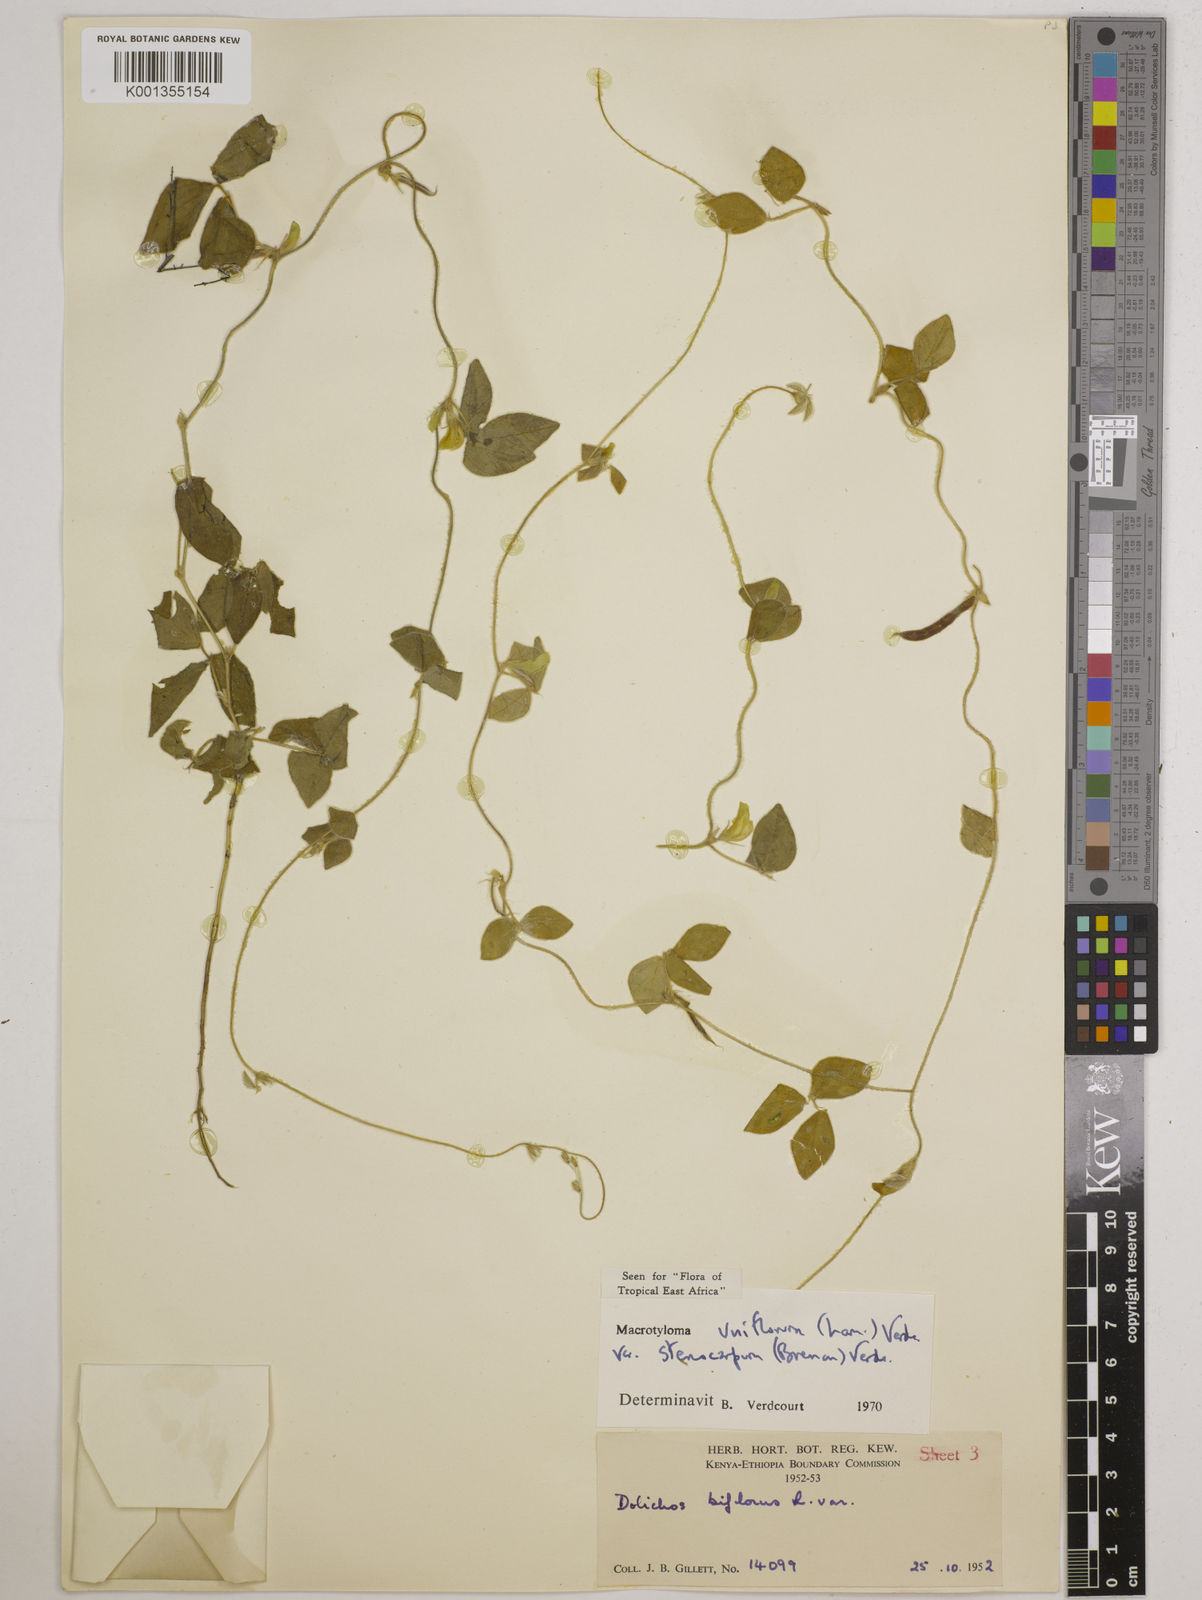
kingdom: Plantae
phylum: Tracheophyta
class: Magnoliopsida
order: Fabales
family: Fabaceae
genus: Macrotyloma
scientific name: Macrotyloma
